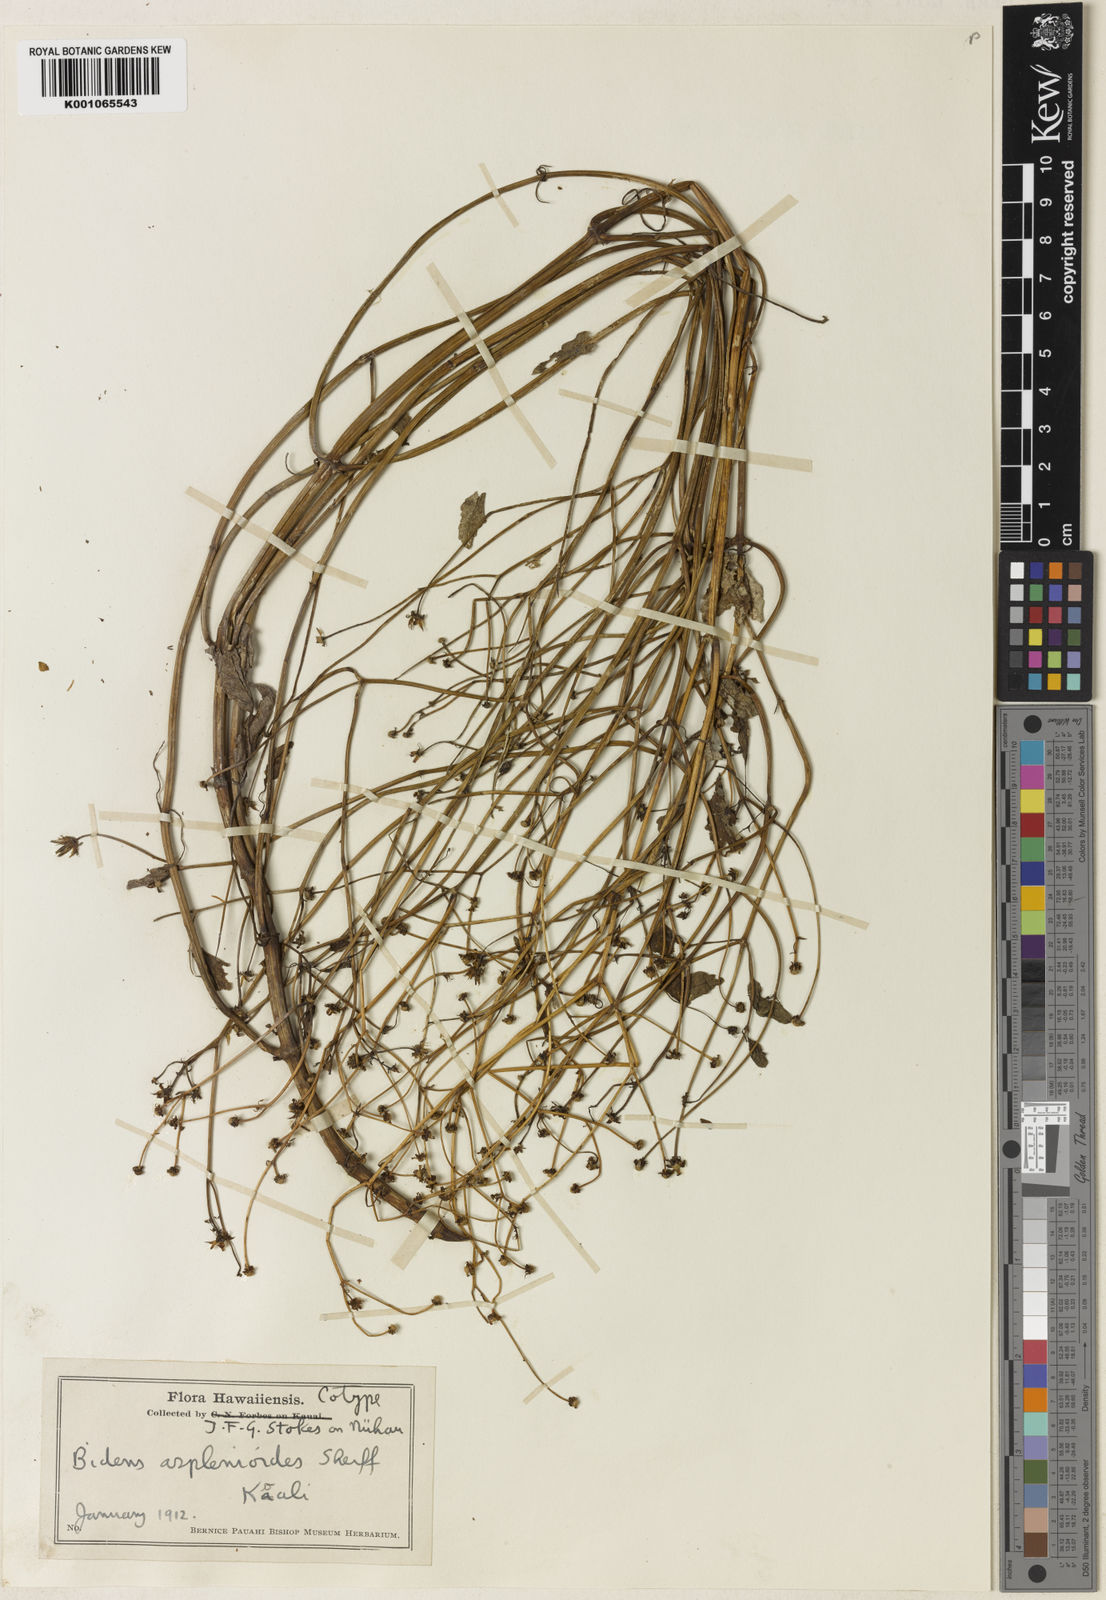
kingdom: Plantae
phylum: Tracheophyta
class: Magnoliopsida
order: Asterales
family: Asteraceae
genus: Bidens
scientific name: Bidens cervicata
